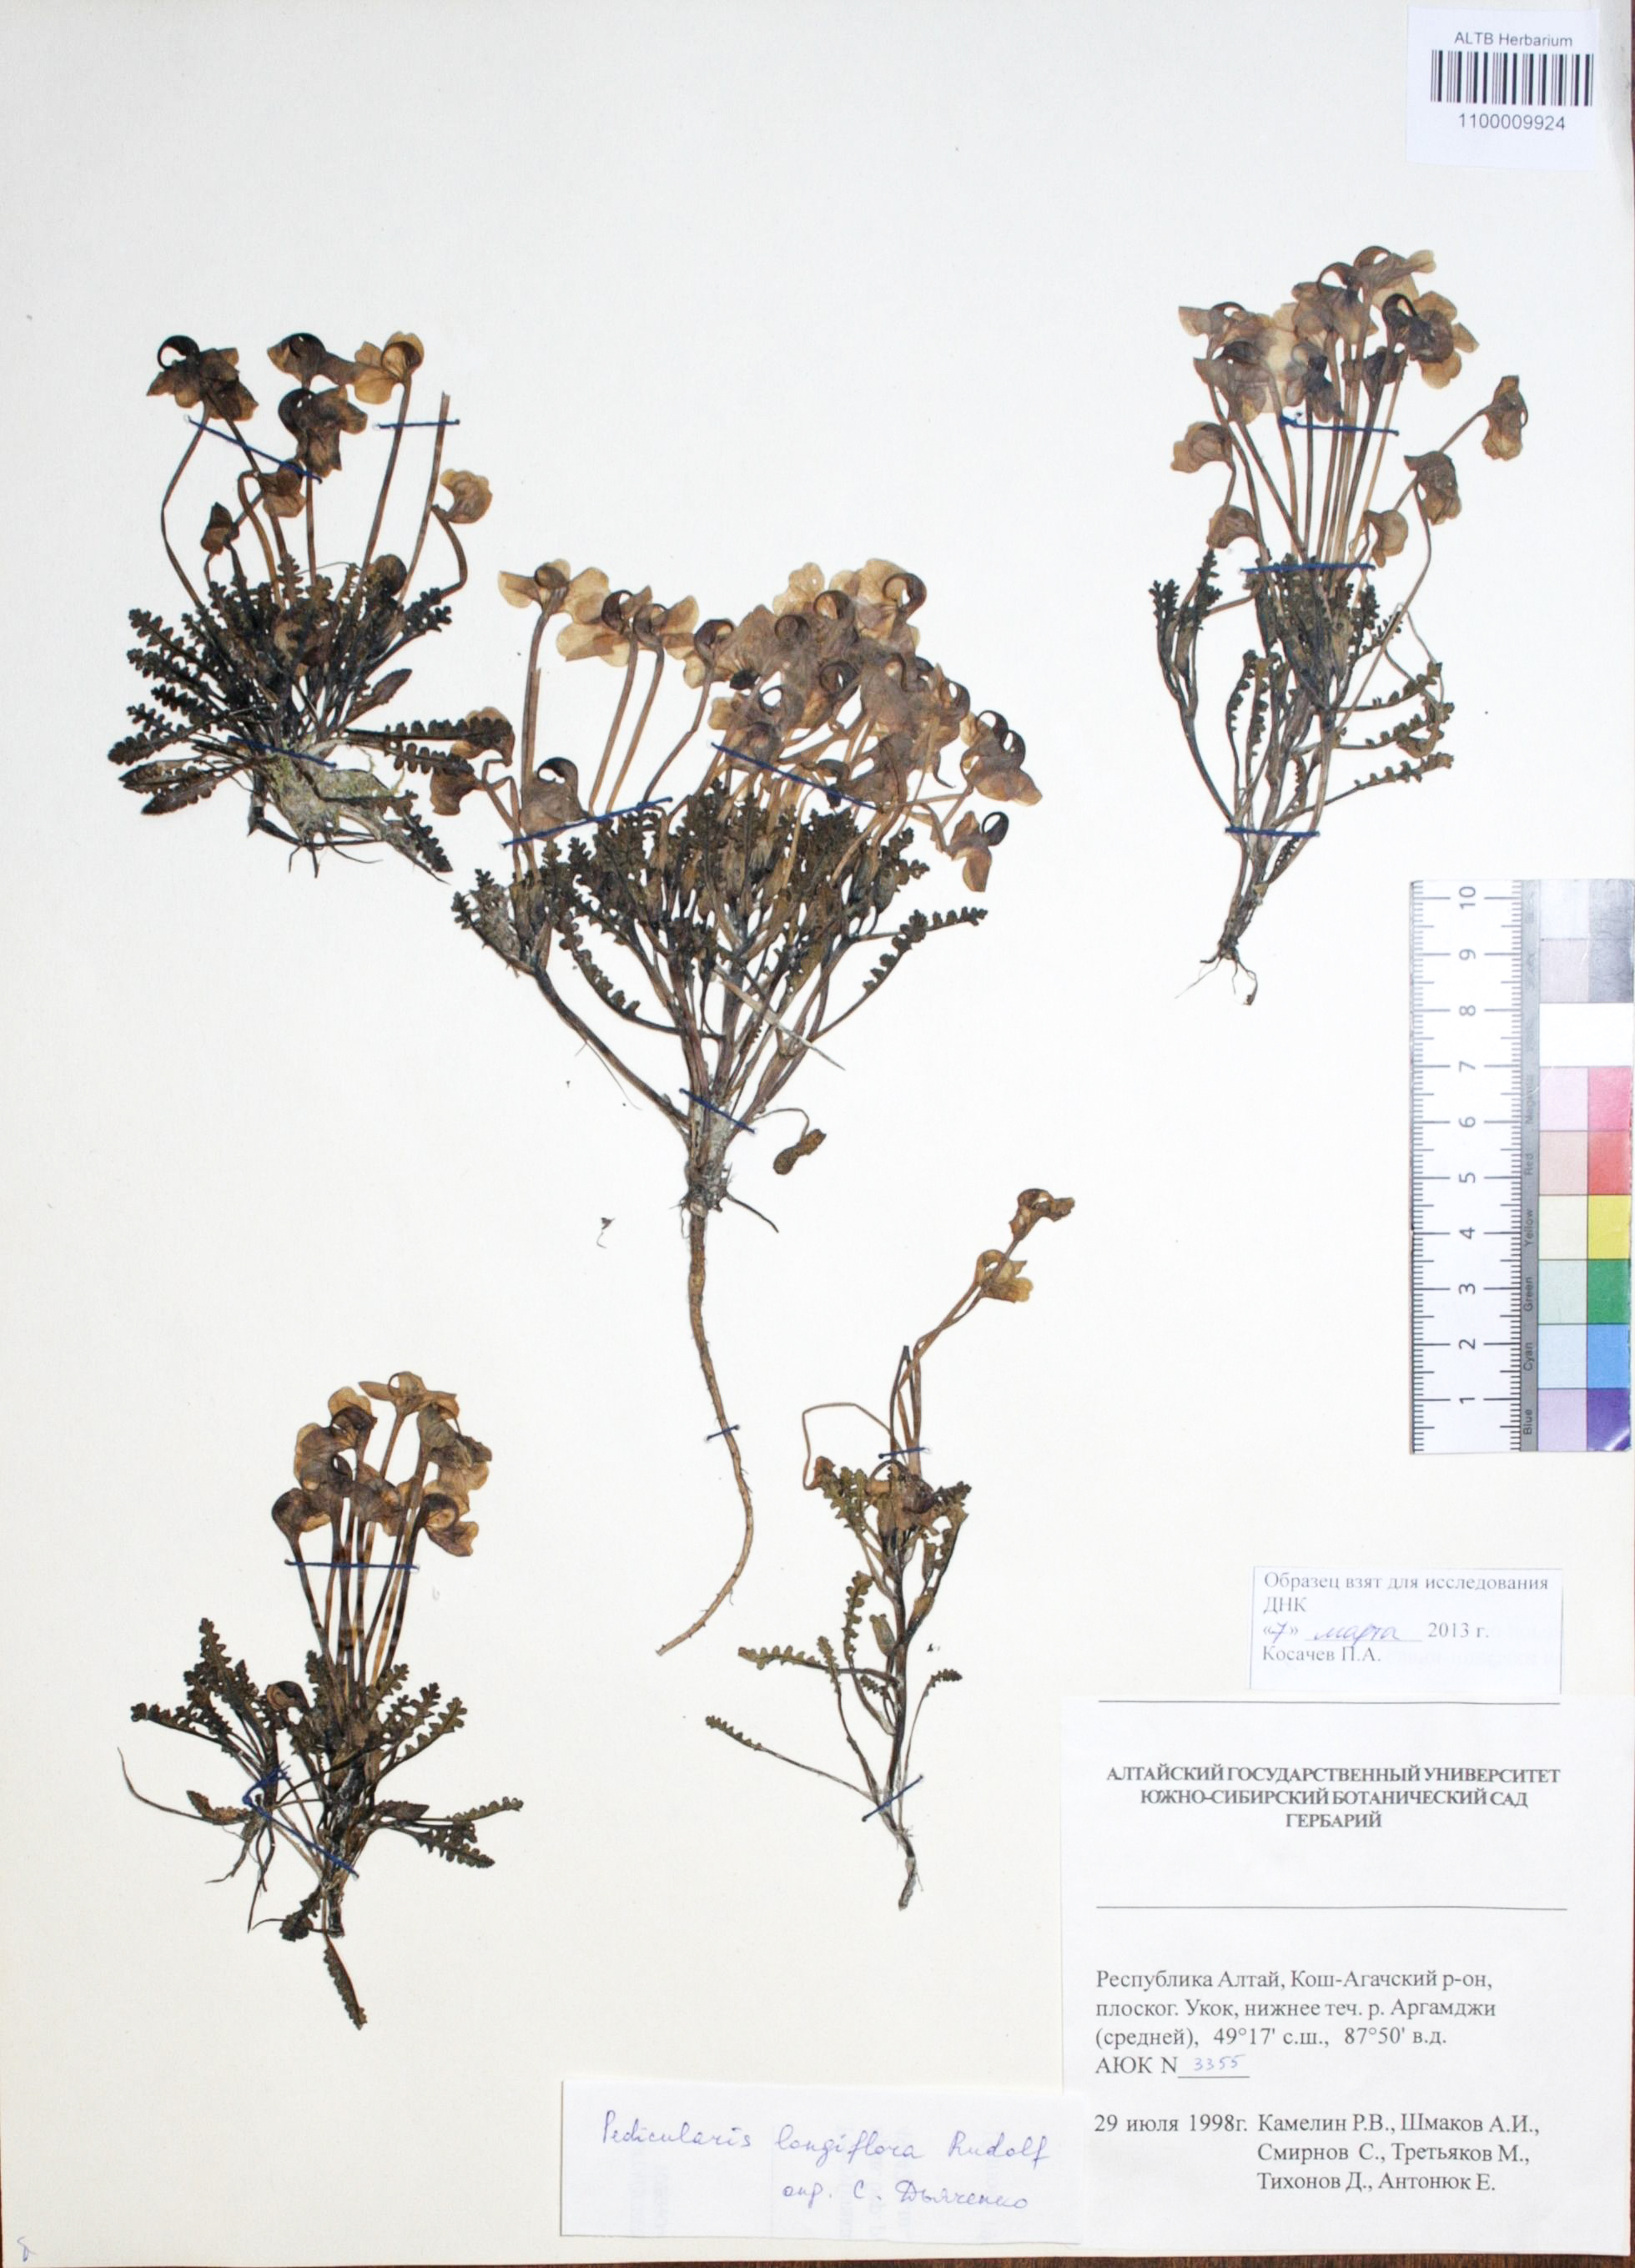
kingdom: Plantae
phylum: Tracheophyta
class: Magnoliopsida
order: Lamiales
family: Orobanchaceae
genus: Pedicularis
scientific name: Pedicularis longiflora
